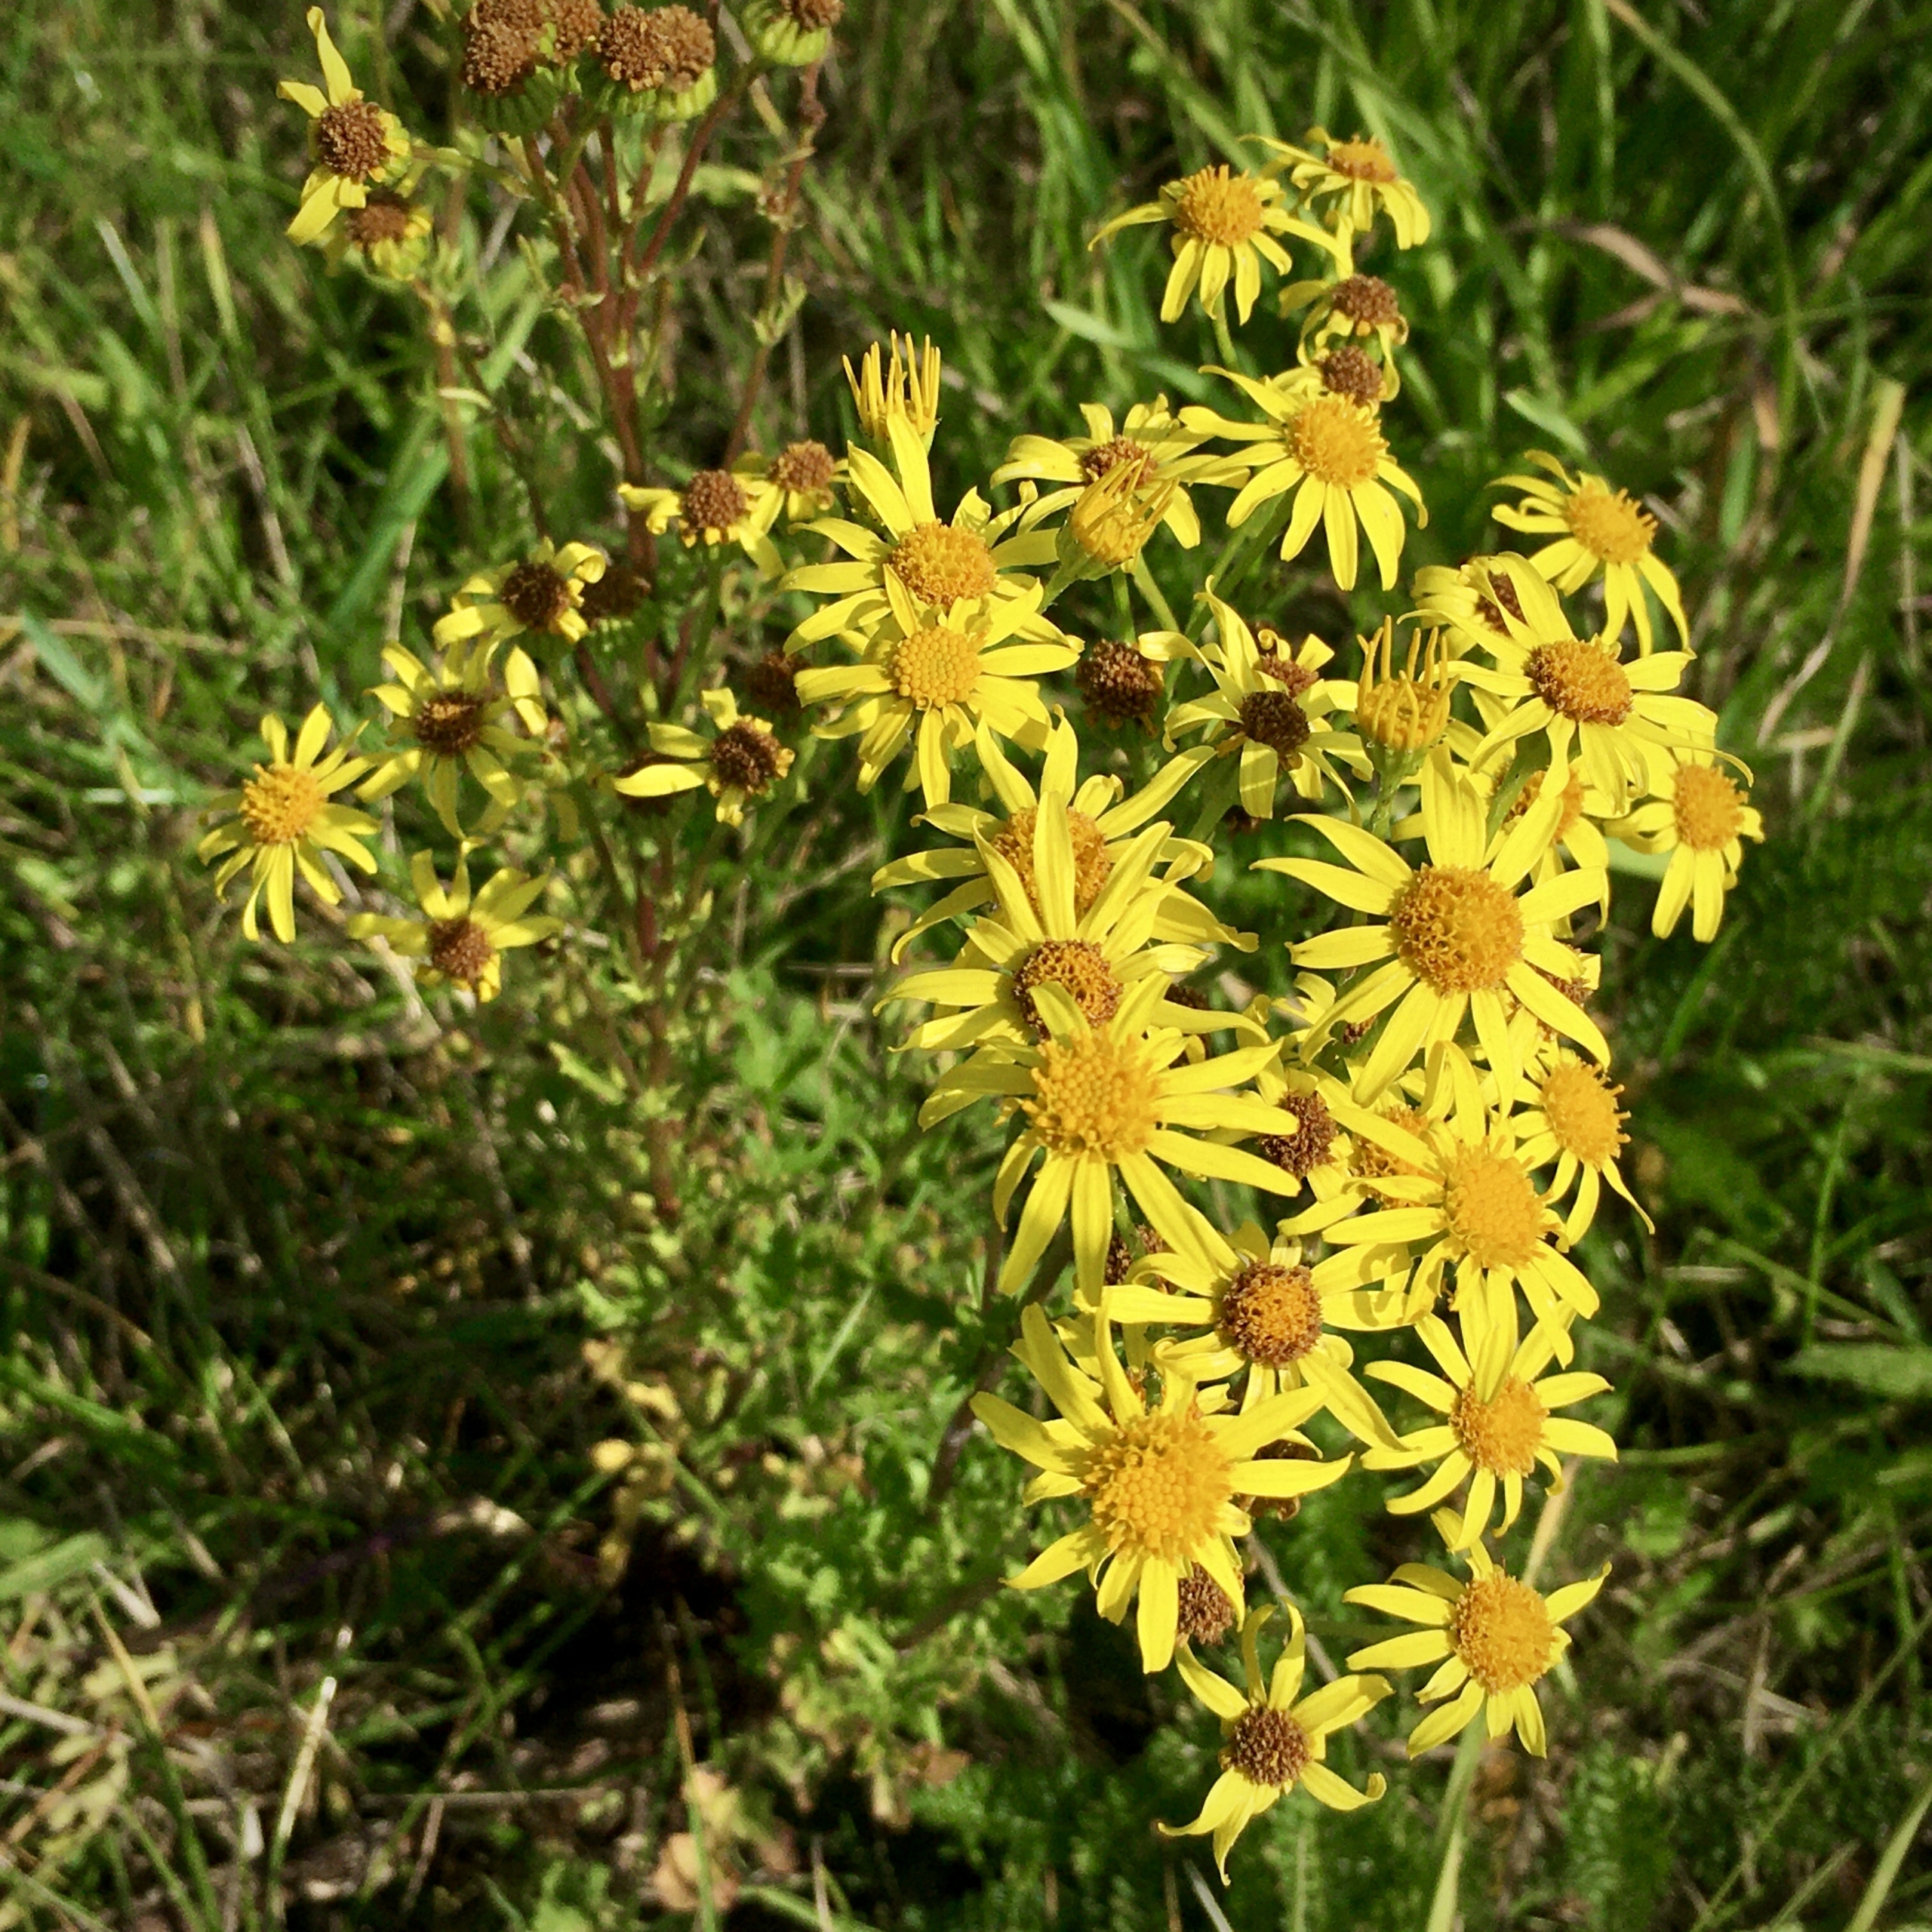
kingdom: Plantae
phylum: Tracheophyta
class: Magnoliopsida
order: Asterales
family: Asteraceae
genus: Jacobaea
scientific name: Jacobaea vulgaris
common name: Eng-brandbæger
